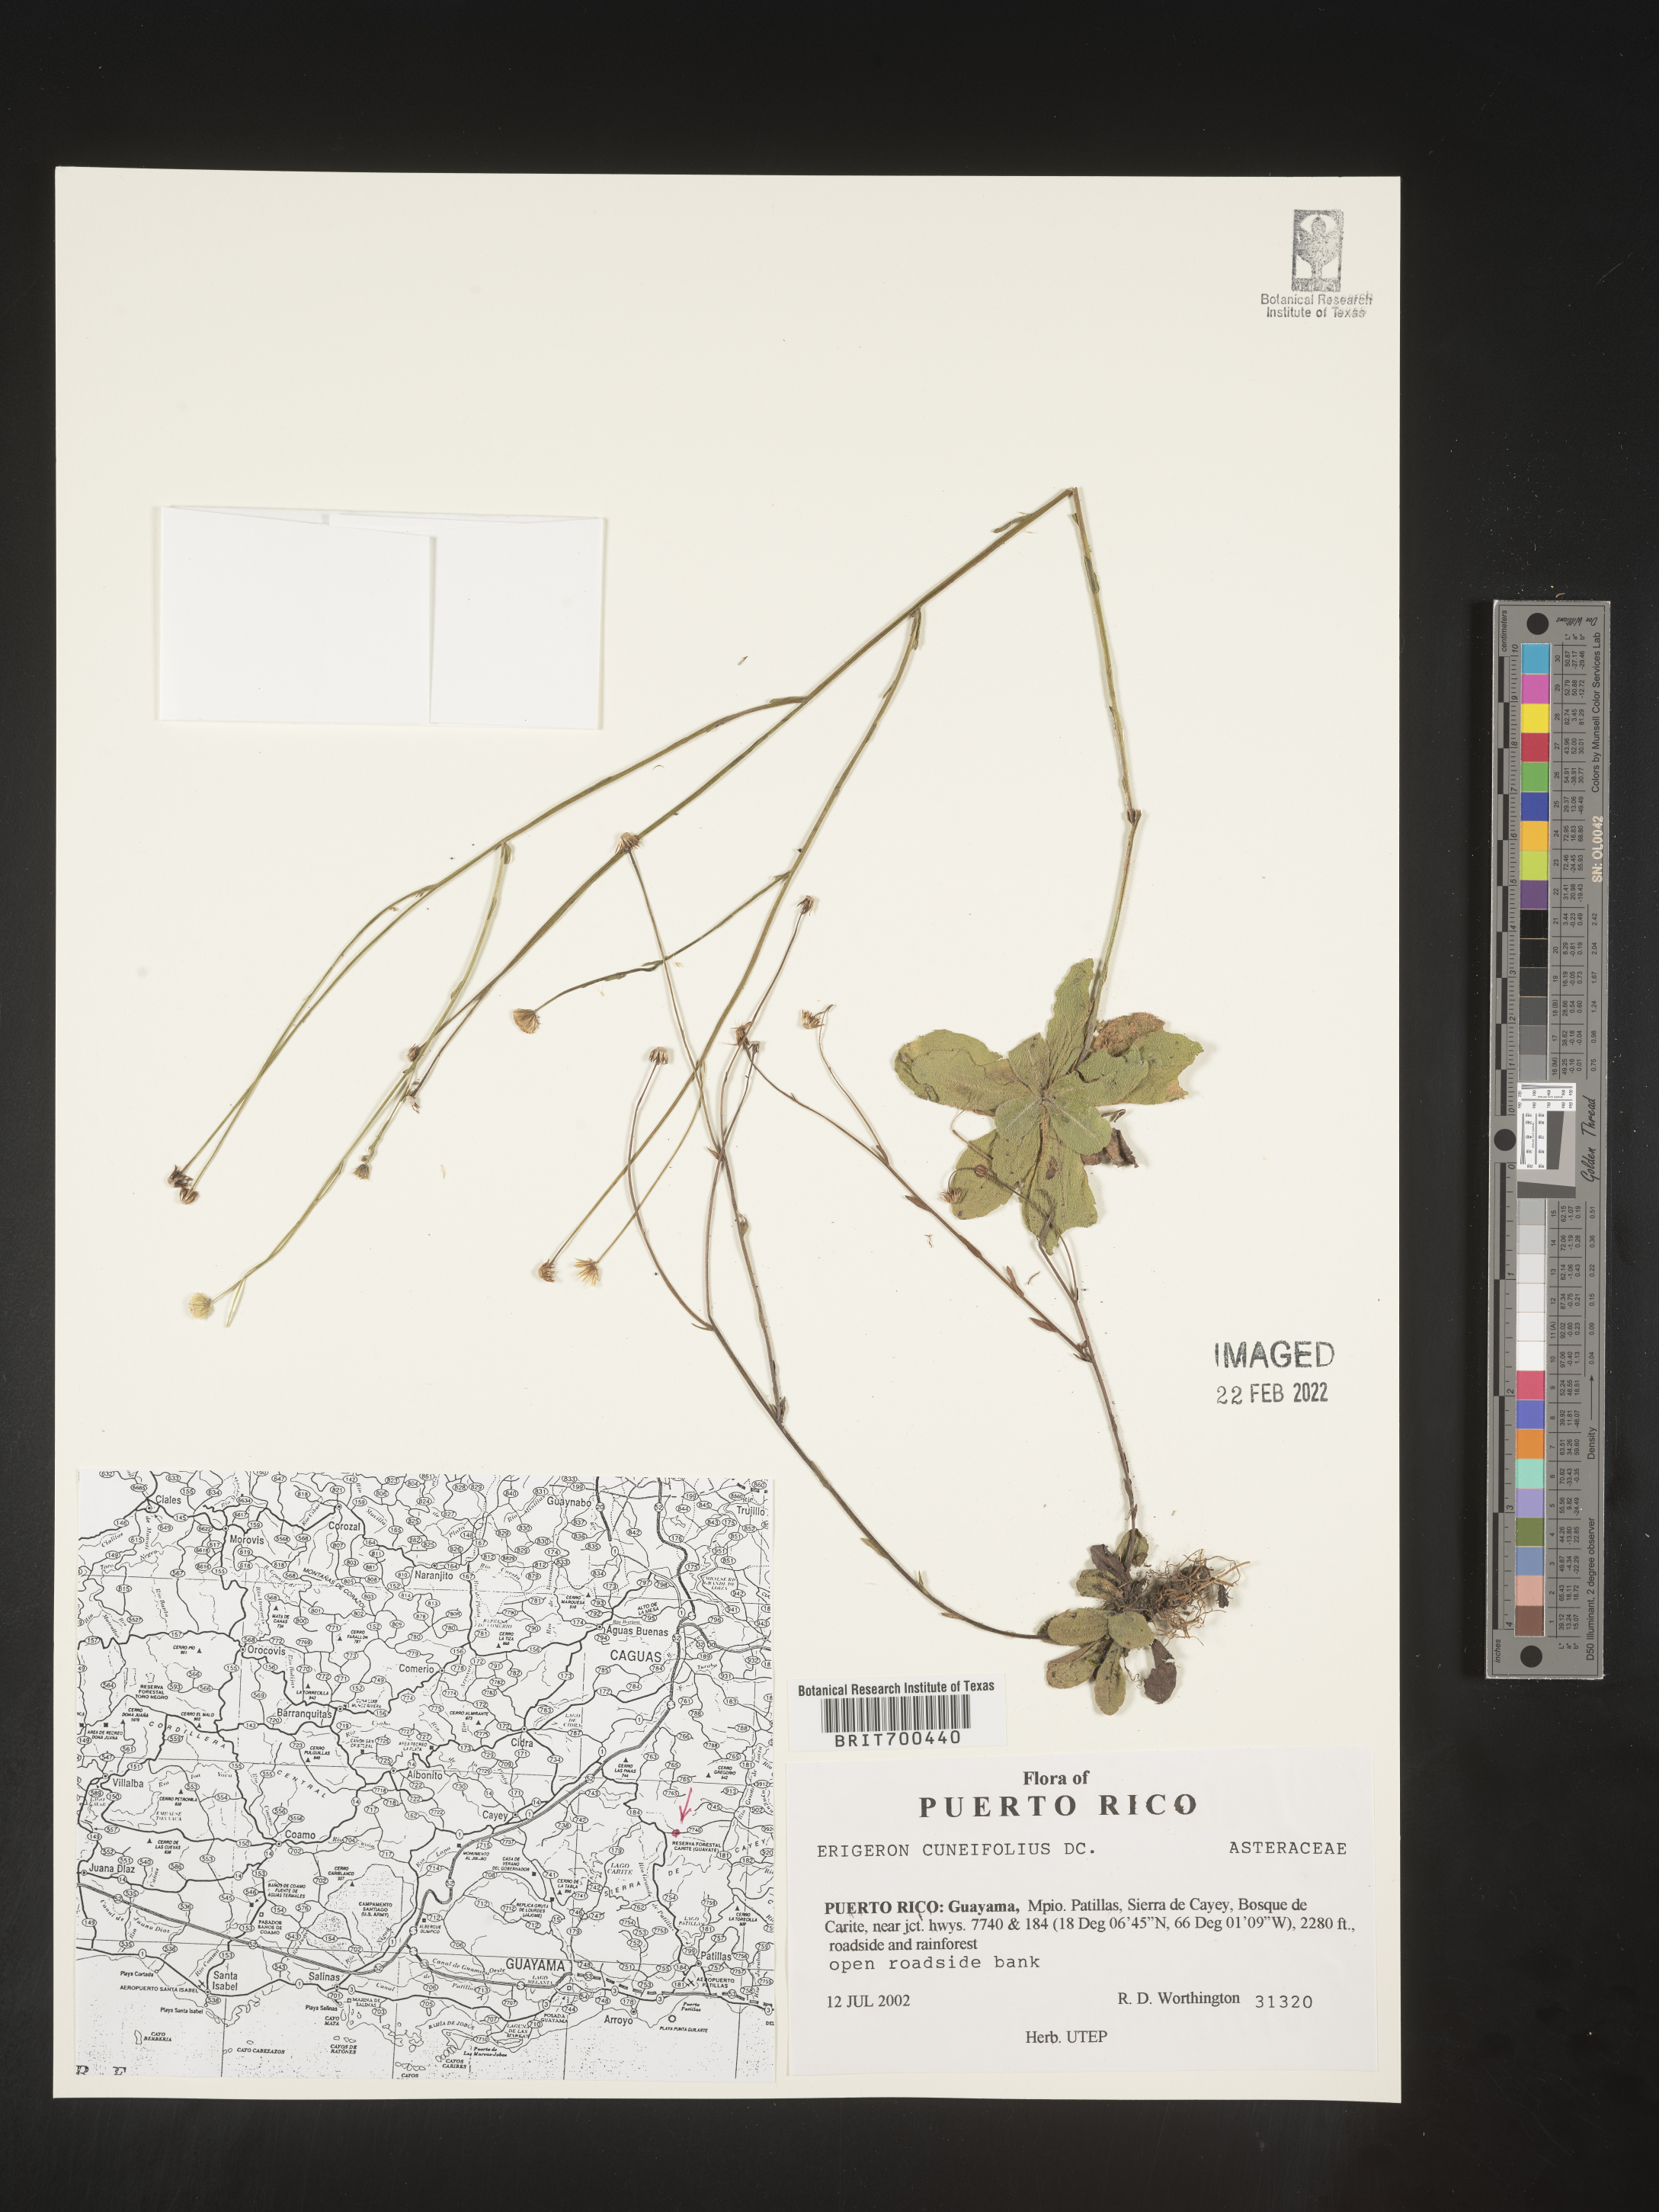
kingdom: Plantae
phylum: Tracheophyta
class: Magnoliopsida
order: Asterales
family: Asteraceae
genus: Erigeron
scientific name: Erigeron
